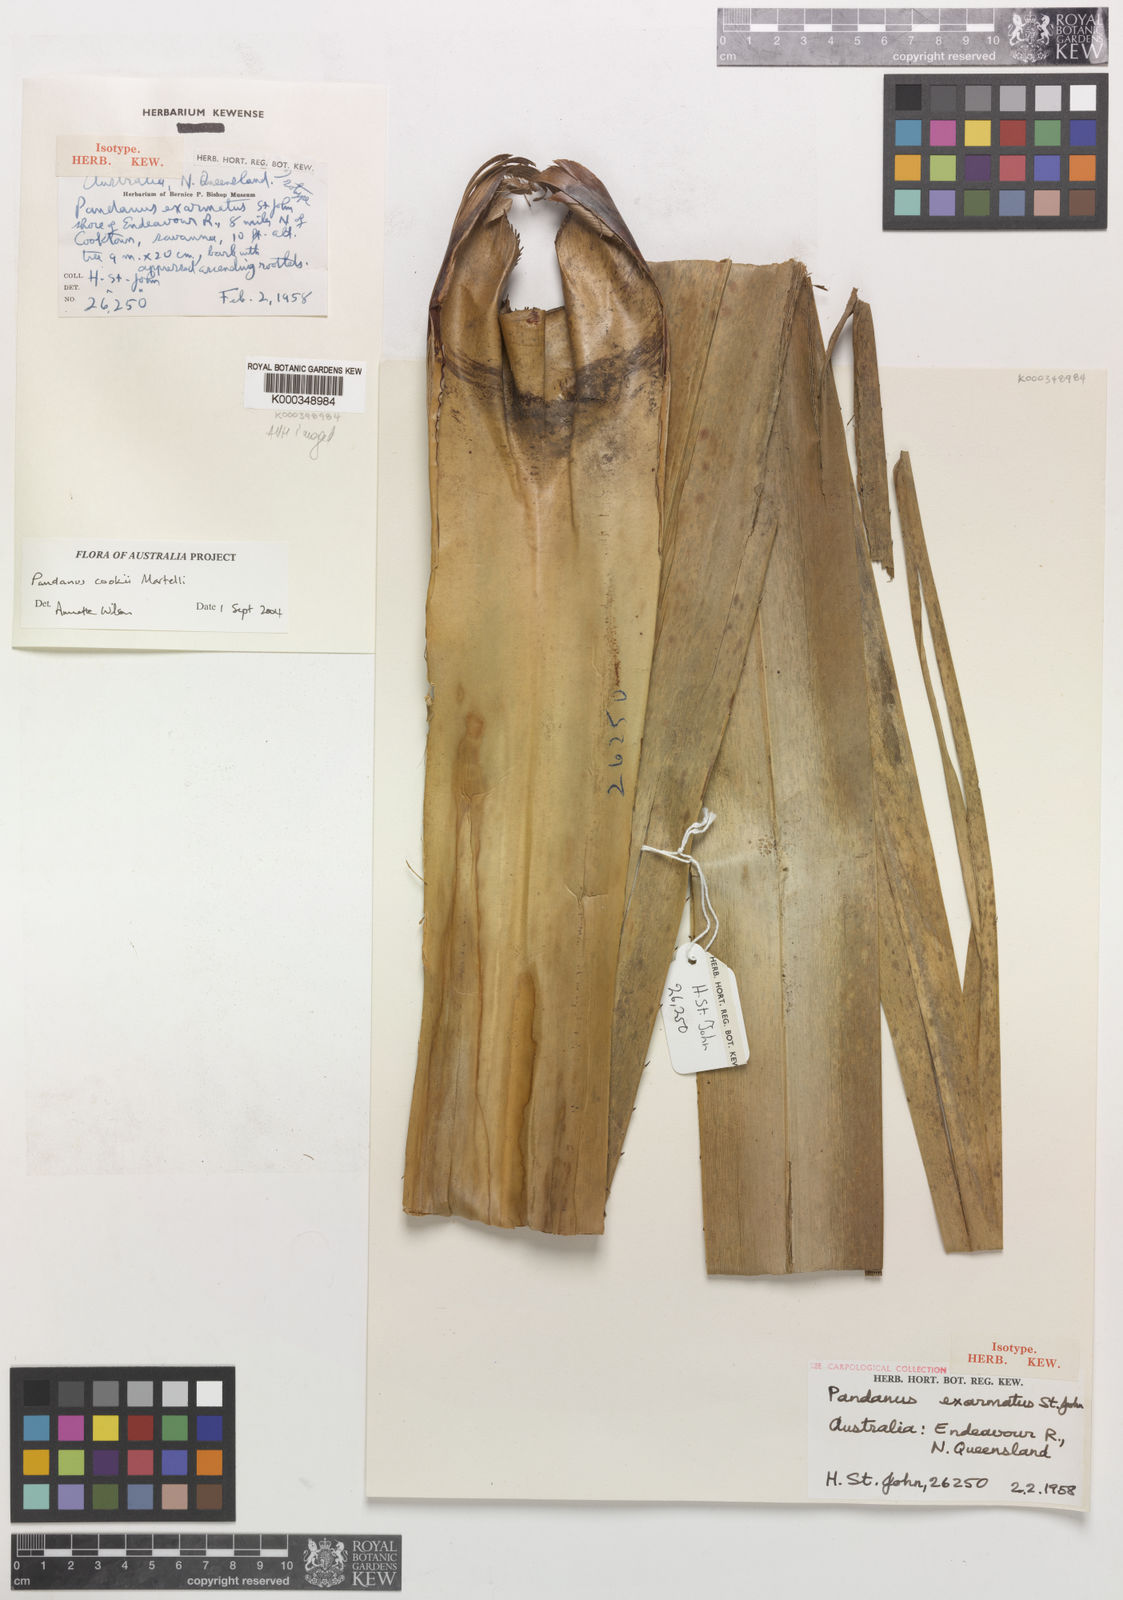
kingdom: Plantae
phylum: Tracheophyta
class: Liliopsida
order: Pandanales
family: Pandanaceae
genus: Pandanus
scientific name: Pandanus cookii
